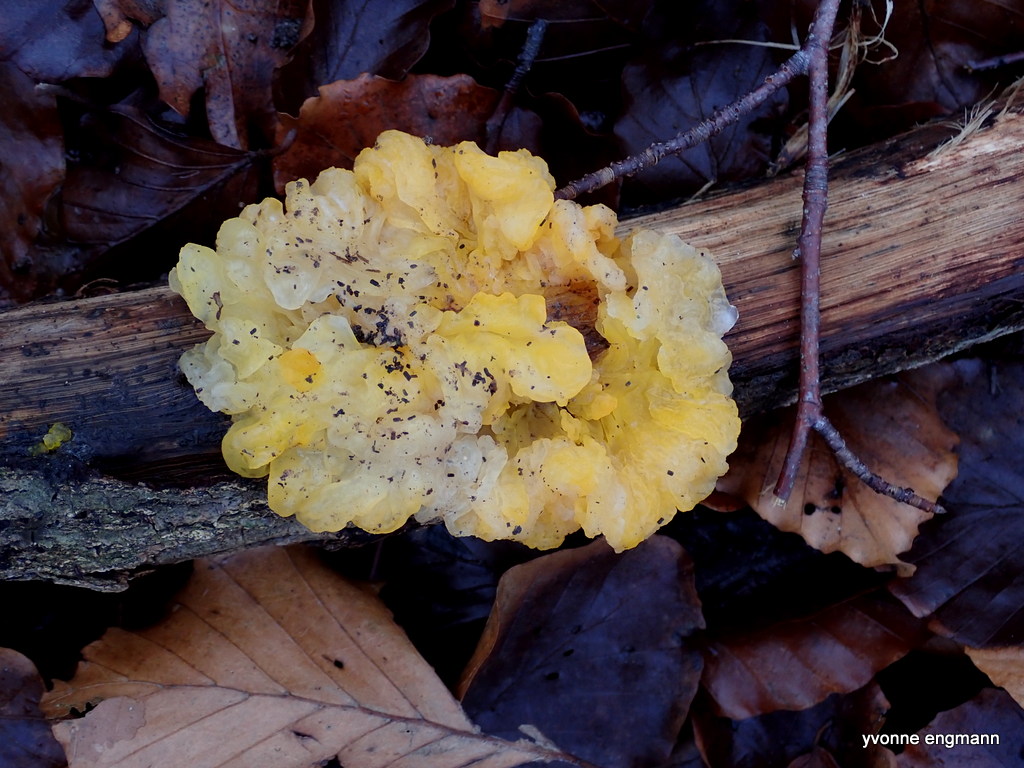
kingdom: Fungi
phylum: Basidiomycota
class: Tremellomycetes
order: Tremellales
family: Tremellaceae
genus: Tremella
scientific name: Tremella mesenterica
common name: gul bævresvamp
